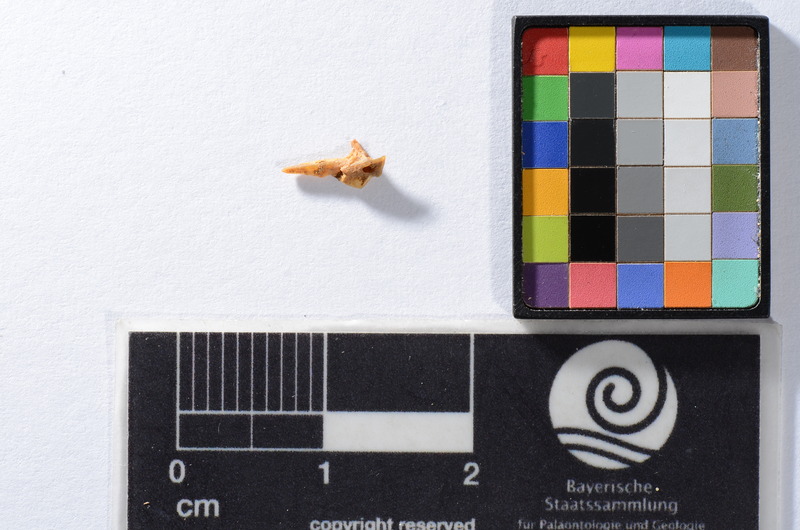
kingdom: Animalia
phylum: Chordata
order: Scorpaeniformes
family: Cottidae
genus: Cottus
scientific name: Cottus gobio
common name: Bullhead
